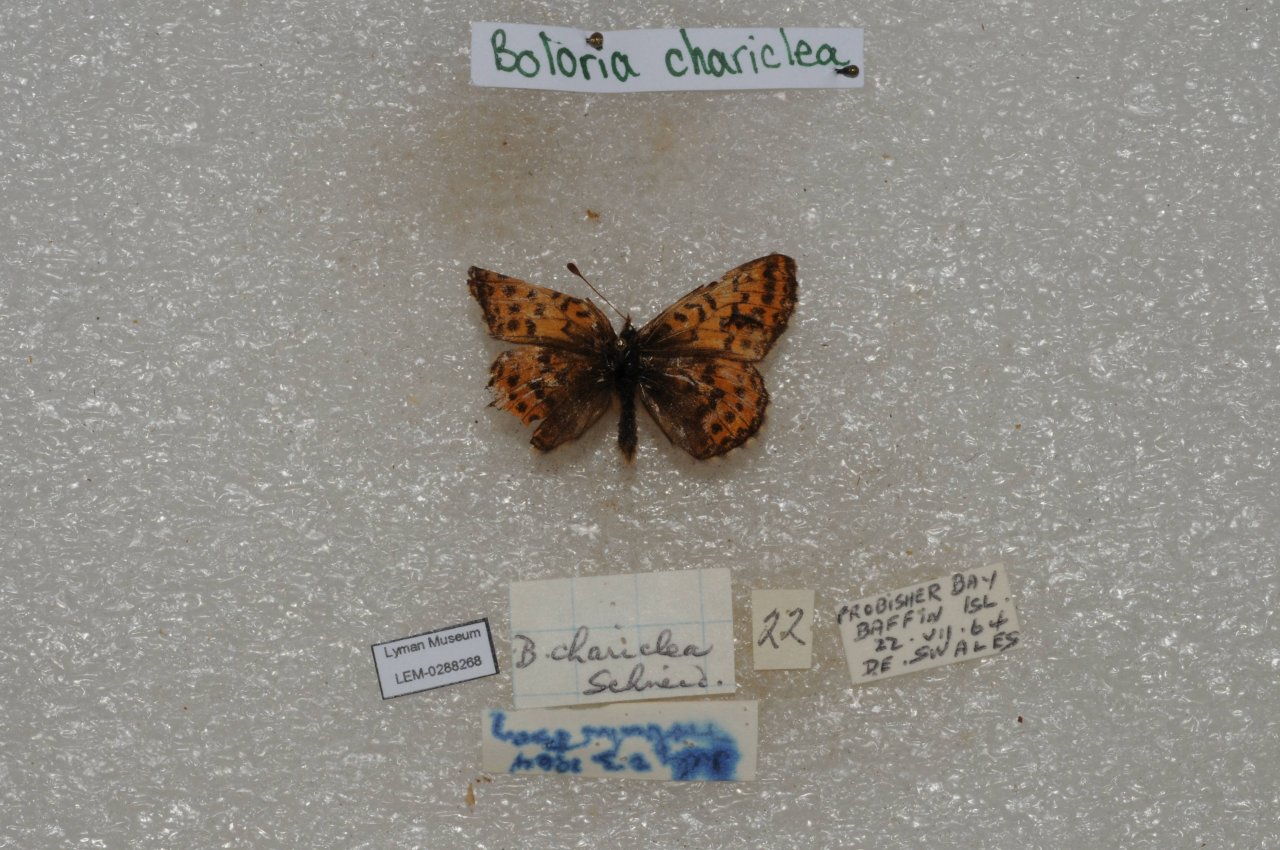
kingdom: Animalia
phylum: Arthropoda
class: Insecta
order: Lepidoptera
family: Nymphalidae
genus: Boloria
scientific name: Boloria chariclea
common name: Arctic Fritillary
